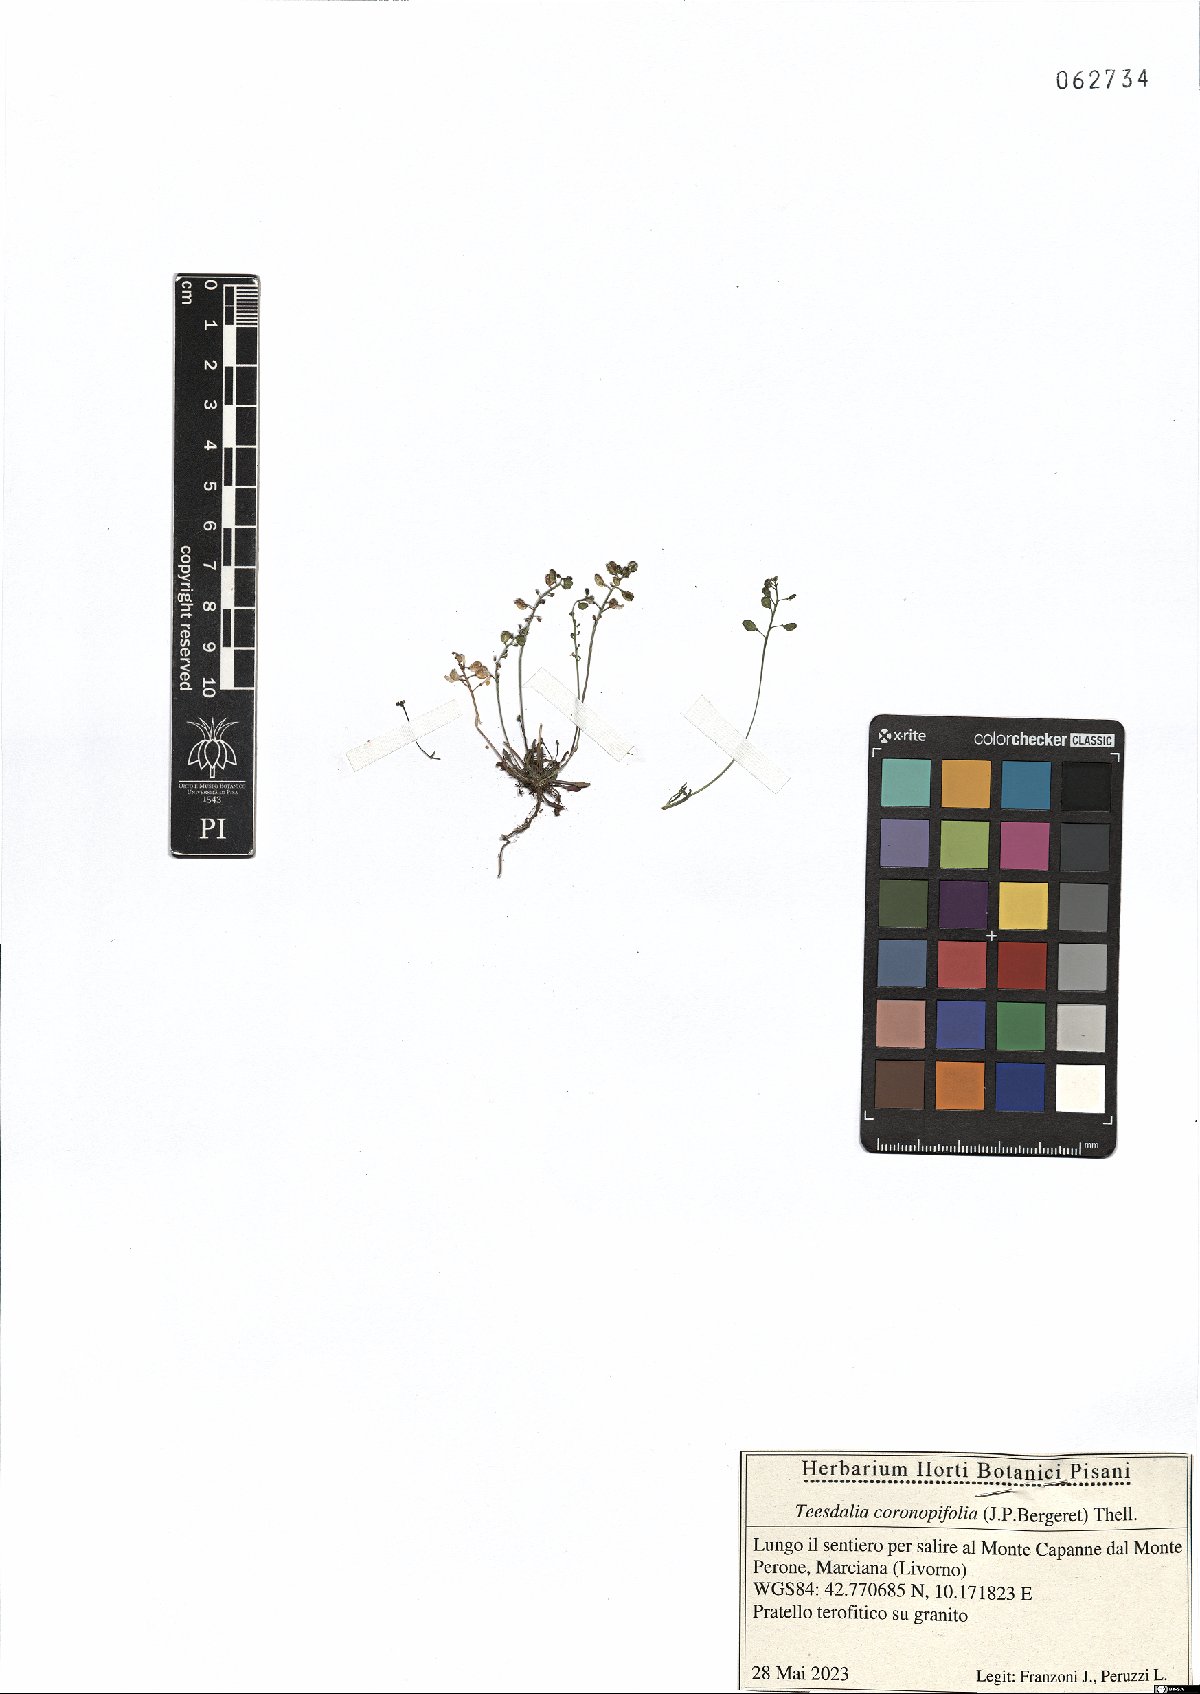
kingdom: Plantae
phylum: Tracheophyta
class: Magnoliopsida
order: Brassicales
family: Brassicaceae
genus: Teesdalia
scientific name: Teesdalia coronopifolia
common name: Lesser shepherdscress
